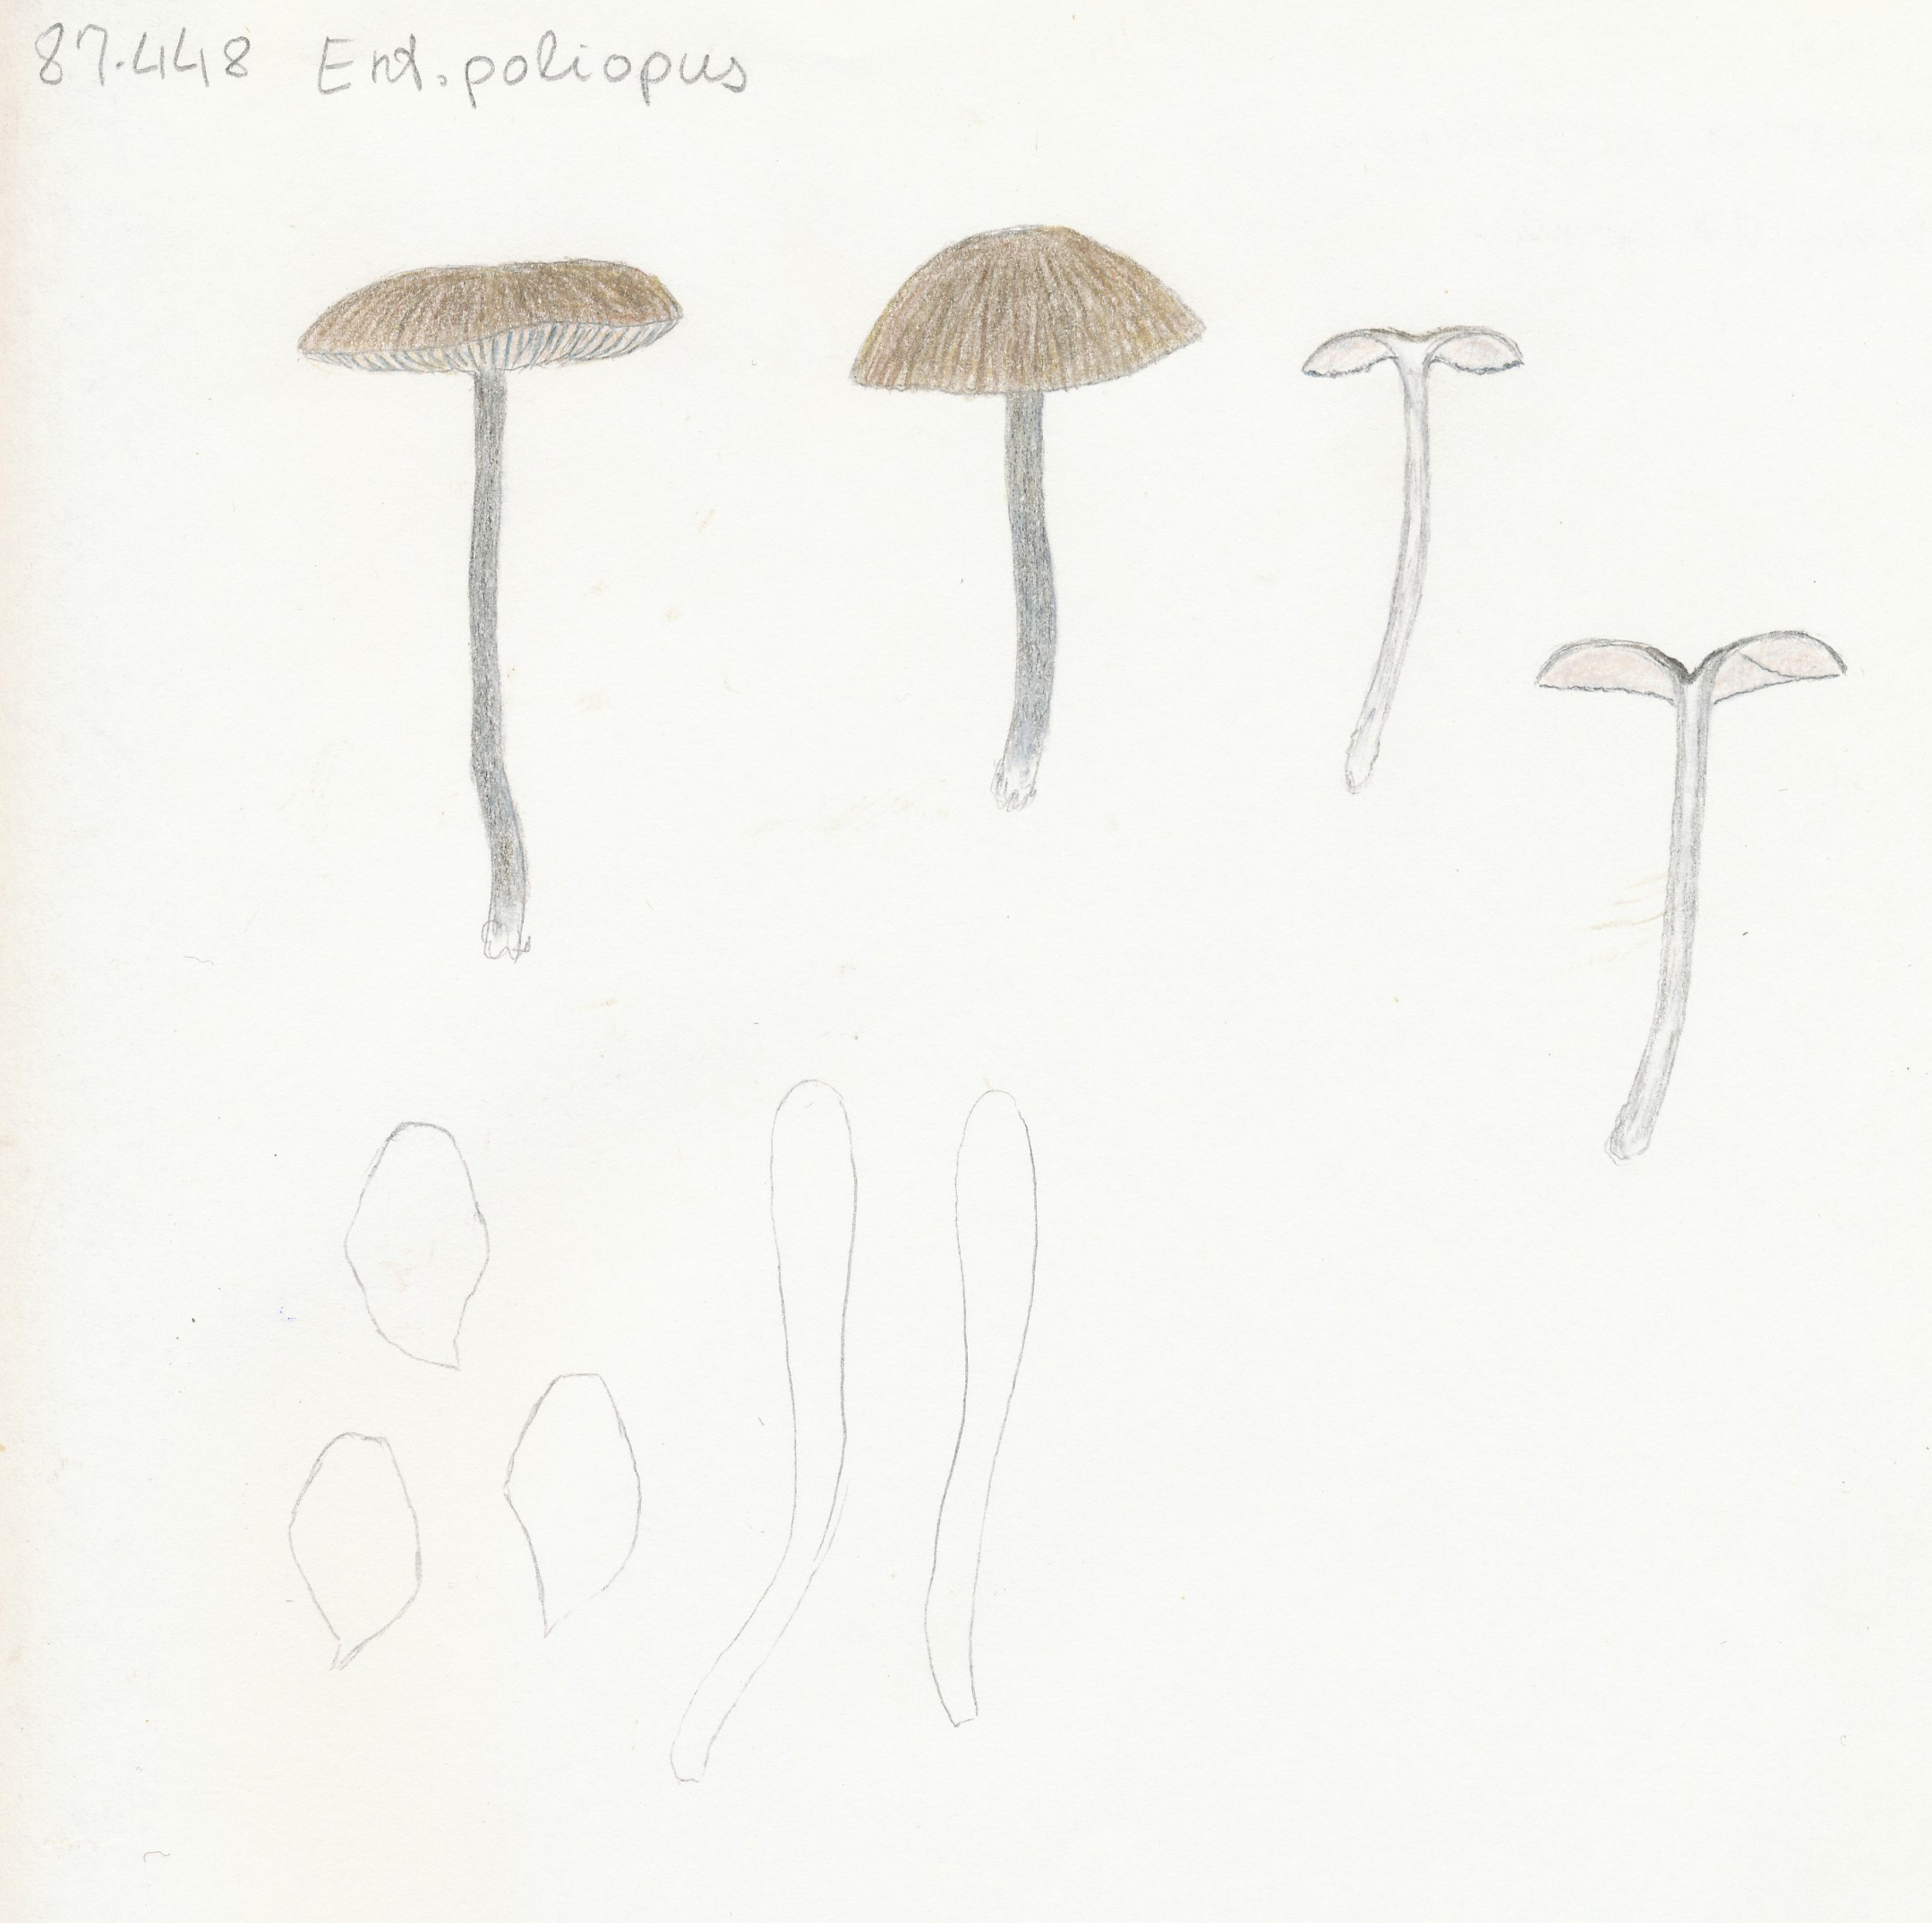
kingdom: Fungi
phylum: Basidiomycota
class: Agaricomycetes
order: Agaricales
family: Entolomataceae
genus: Entoloma
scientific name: Entoloma poliopus
